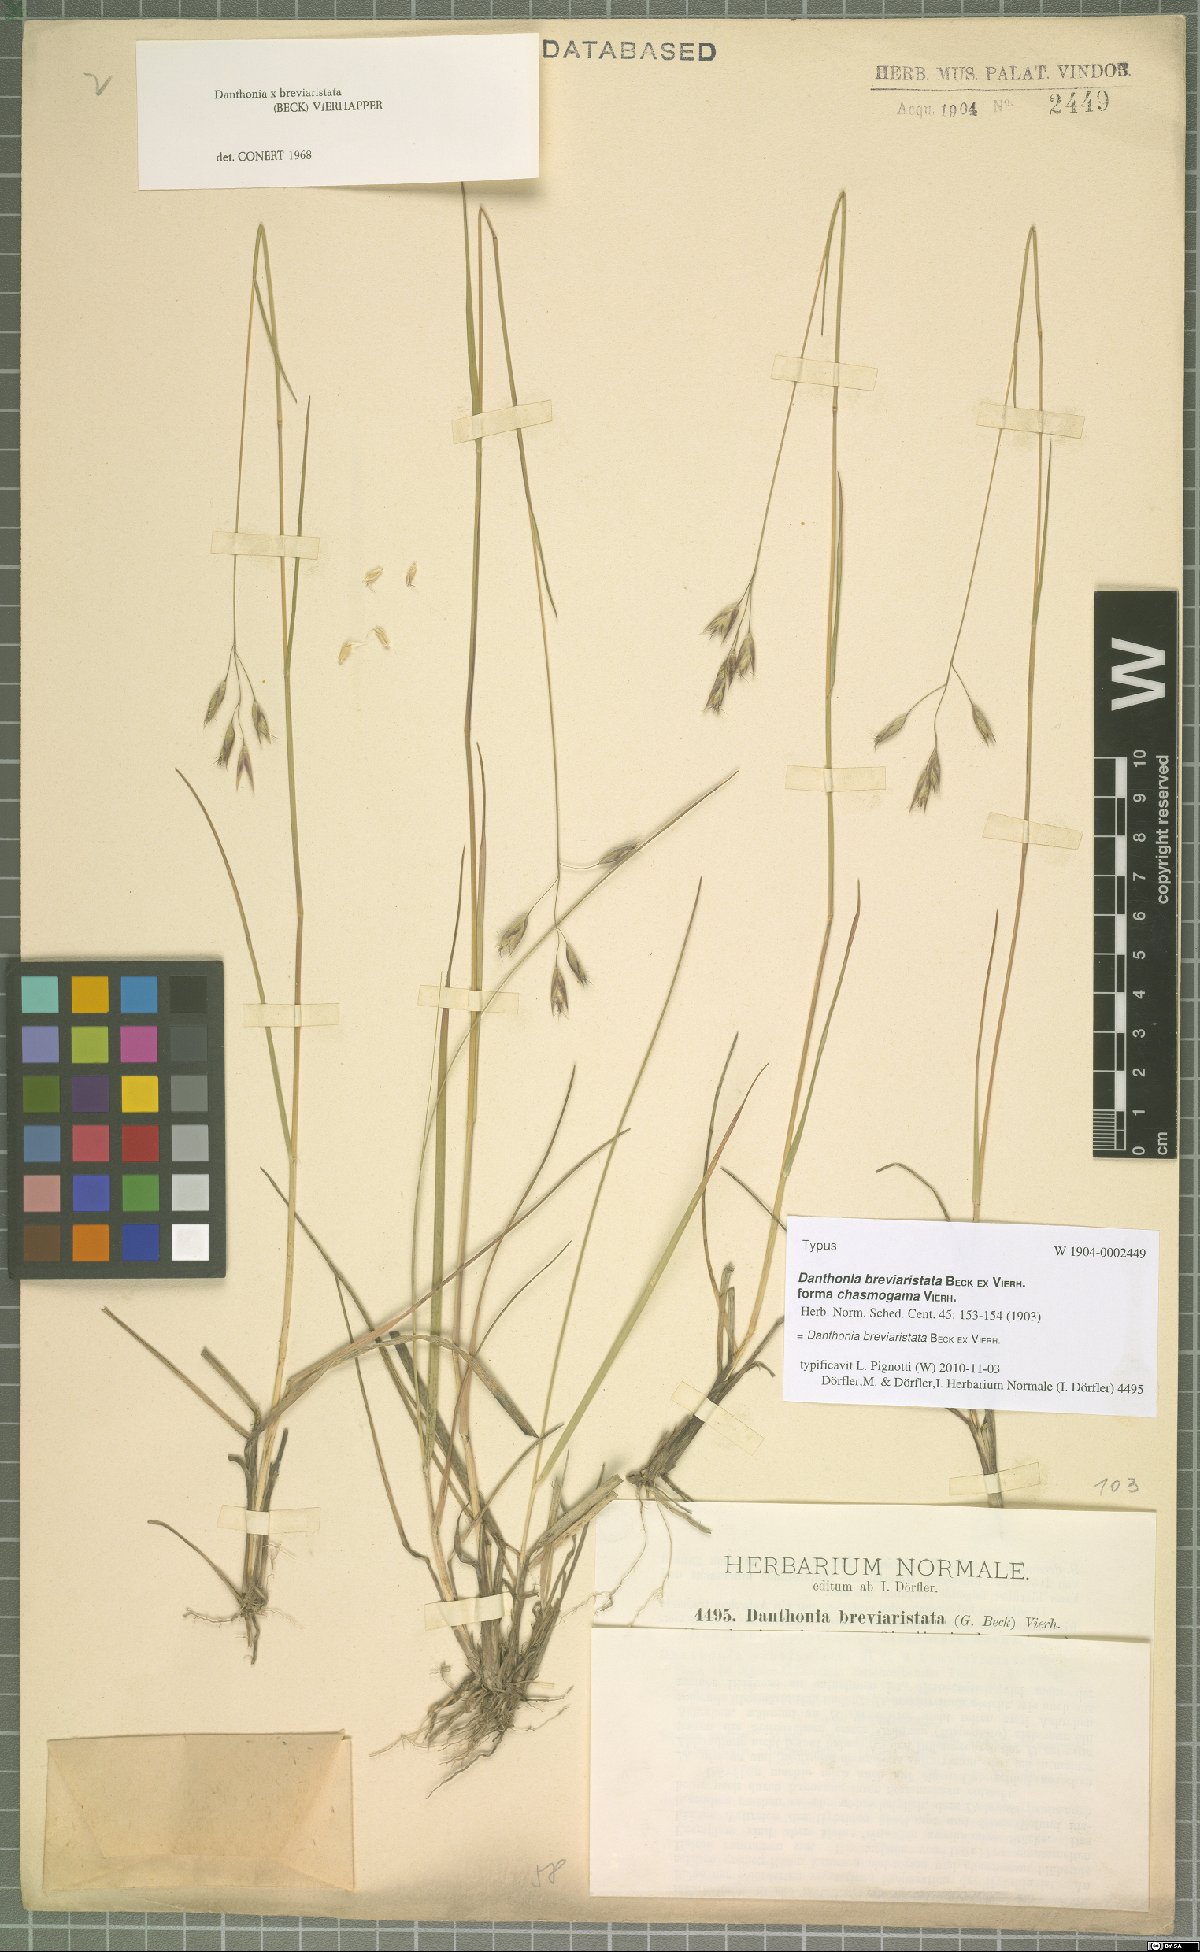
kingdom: Plantae
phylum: Tracheophyta
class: Liliopsida
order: Poales
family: Poaceae
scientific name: Poaceae
